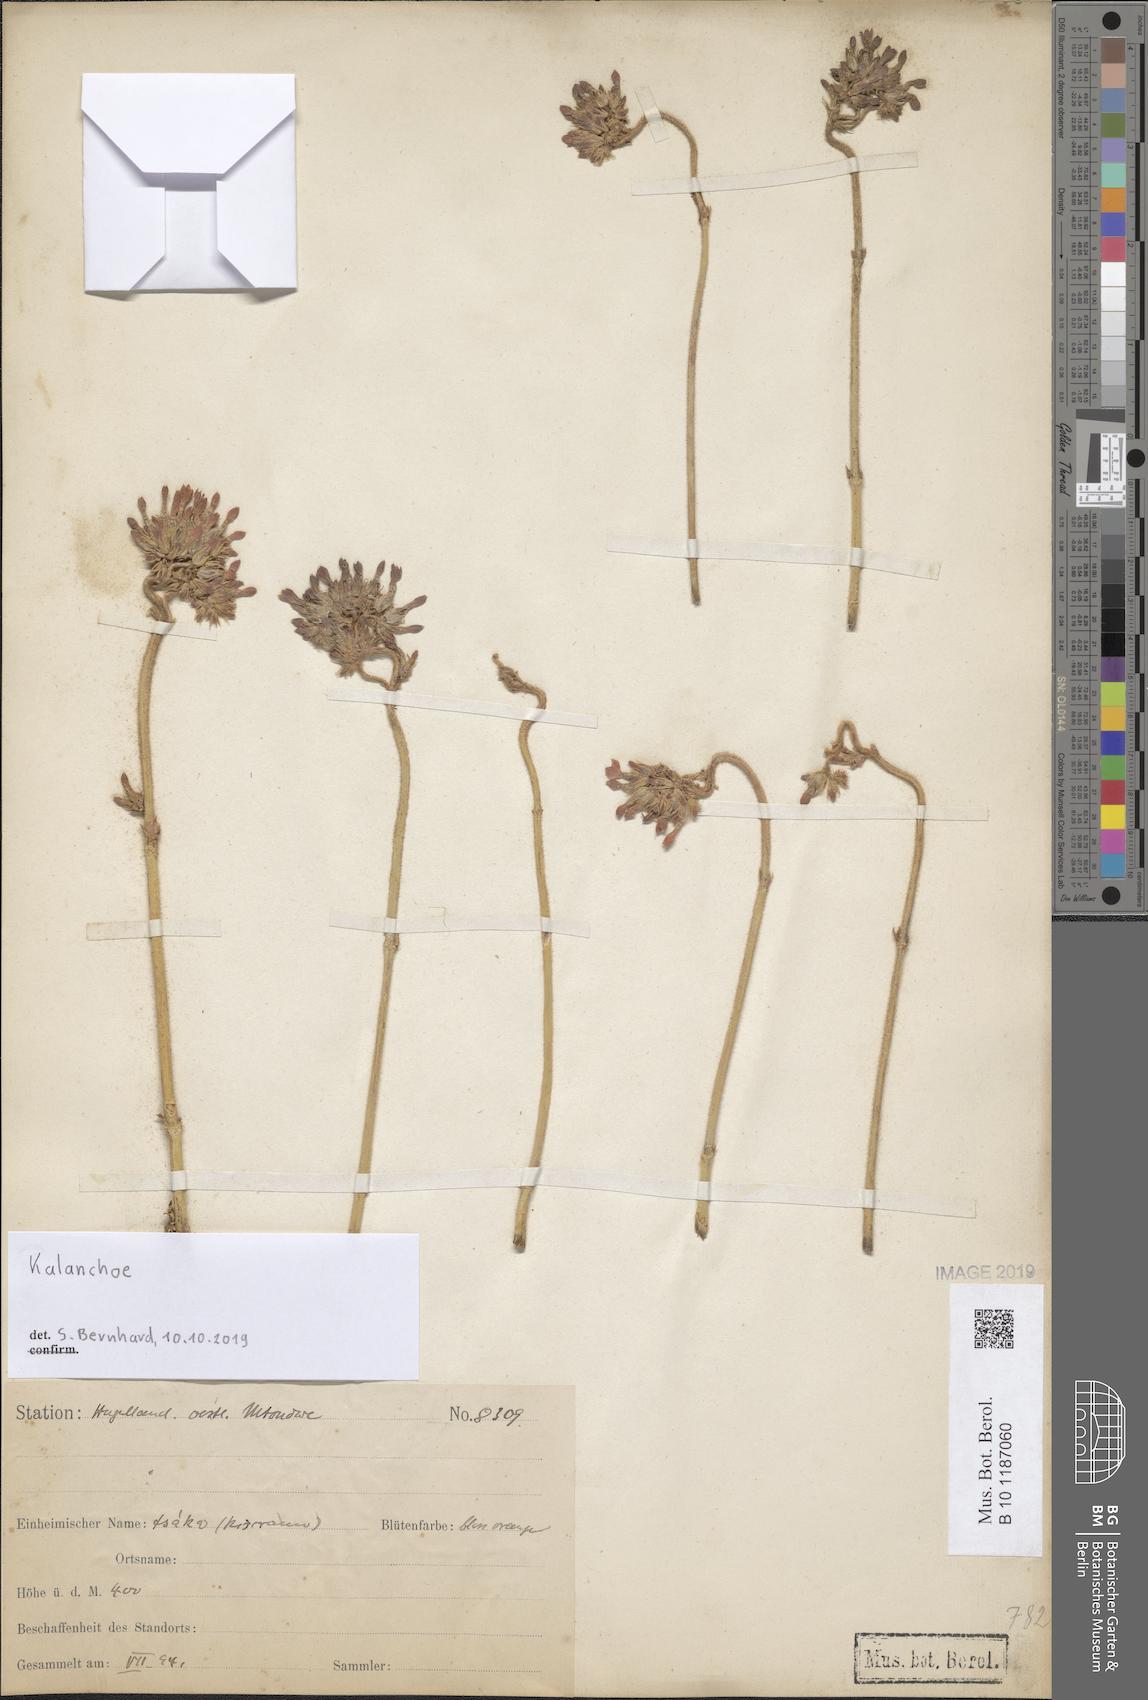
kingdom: Plantae
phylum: Tracheophyta
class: Magnoliopsida
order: Saxifragales
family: Crassulaceae
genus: Kalanchoe
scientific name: Kalanchoe
